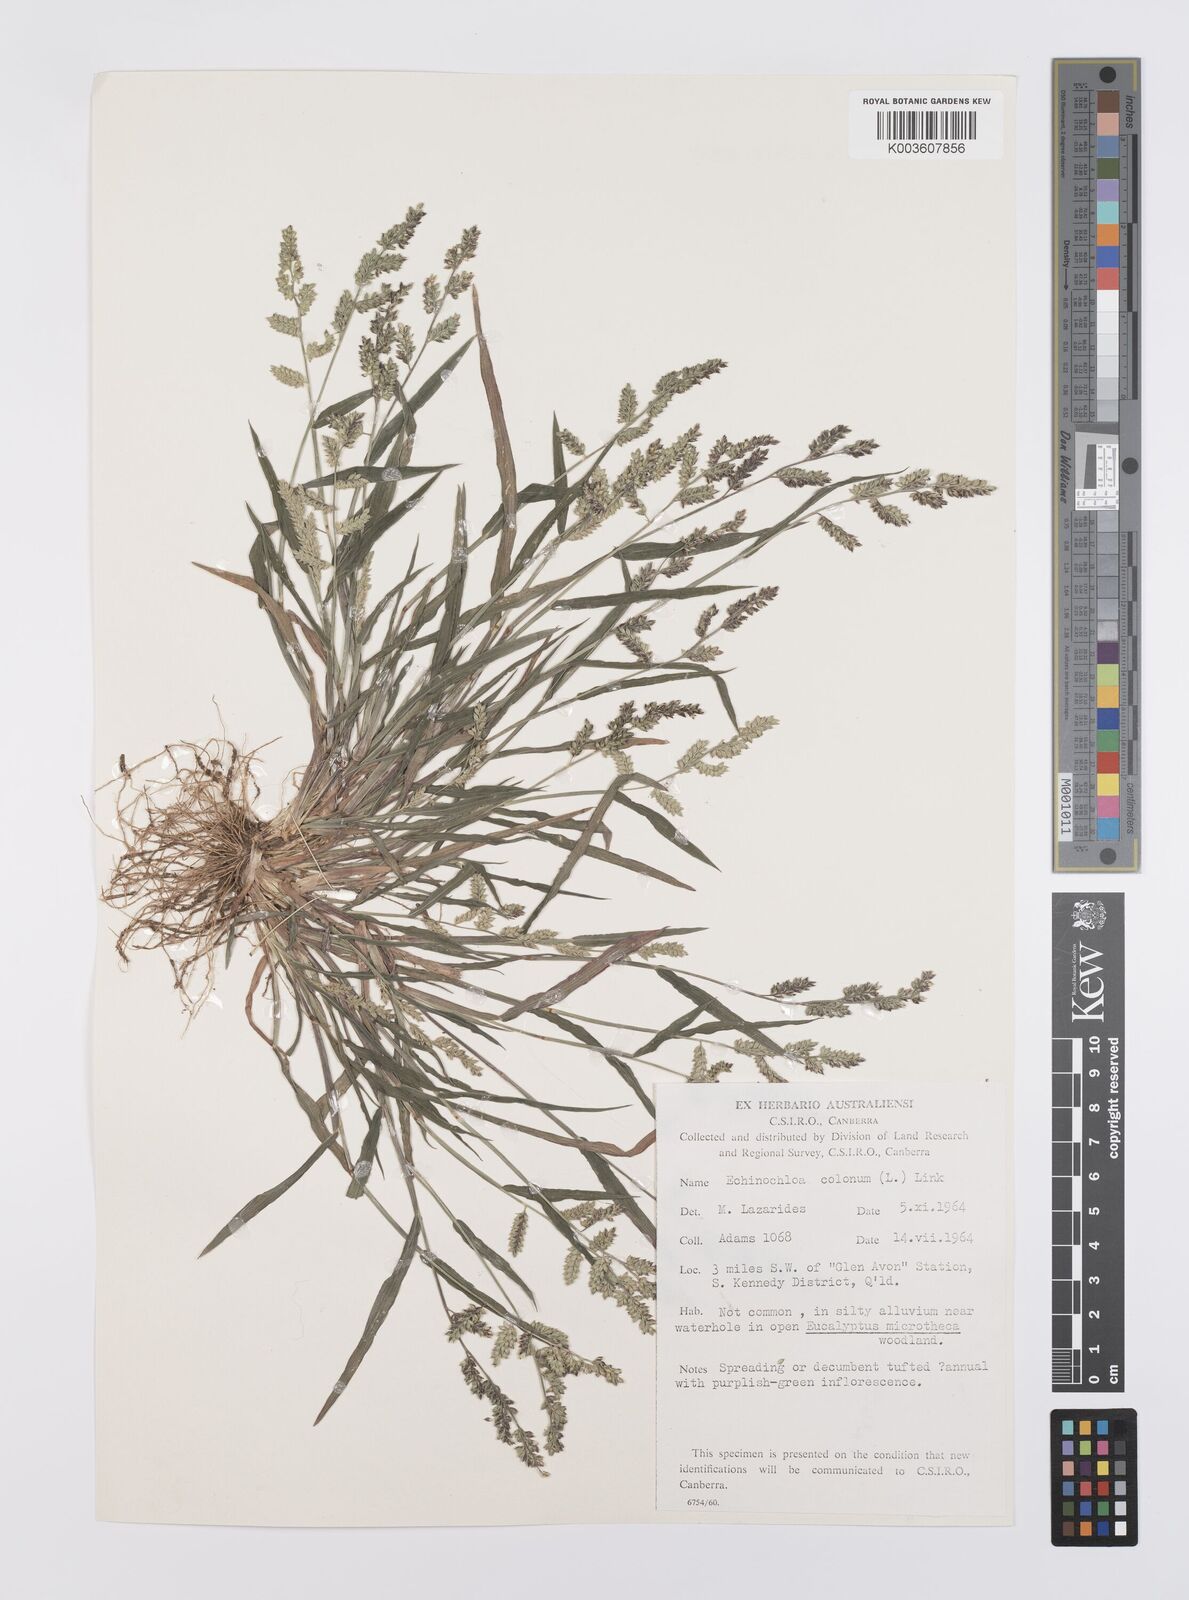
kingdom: Plantae
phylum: Tracheophyta
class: Liliopsida
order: Poales
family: Poaceae
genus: Echinochloa
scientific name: Echinochloa colonum
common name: Jungle rice
